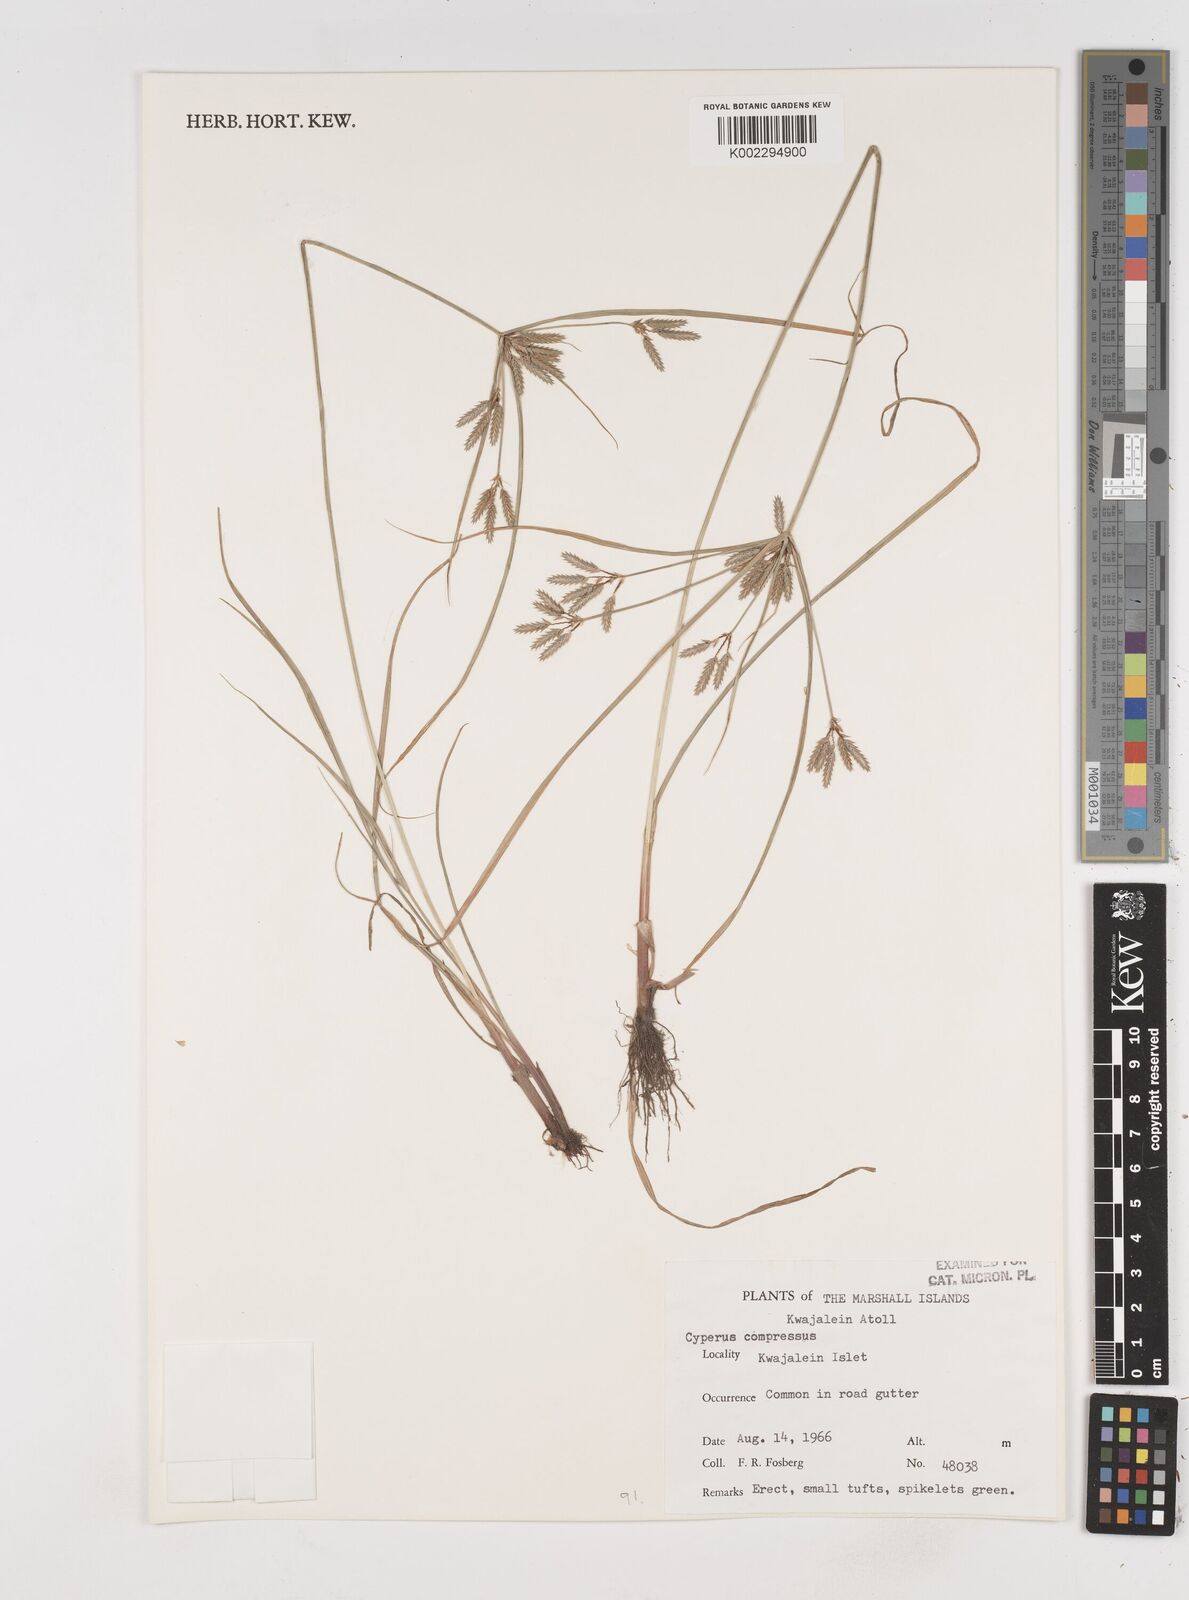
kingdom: Plantae
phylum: Tracheophyta
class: Liliopsida
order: Poales
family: Cyperaceae
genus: Cyperus
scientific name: Cyperus compressus
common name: Poorland flatsedge
